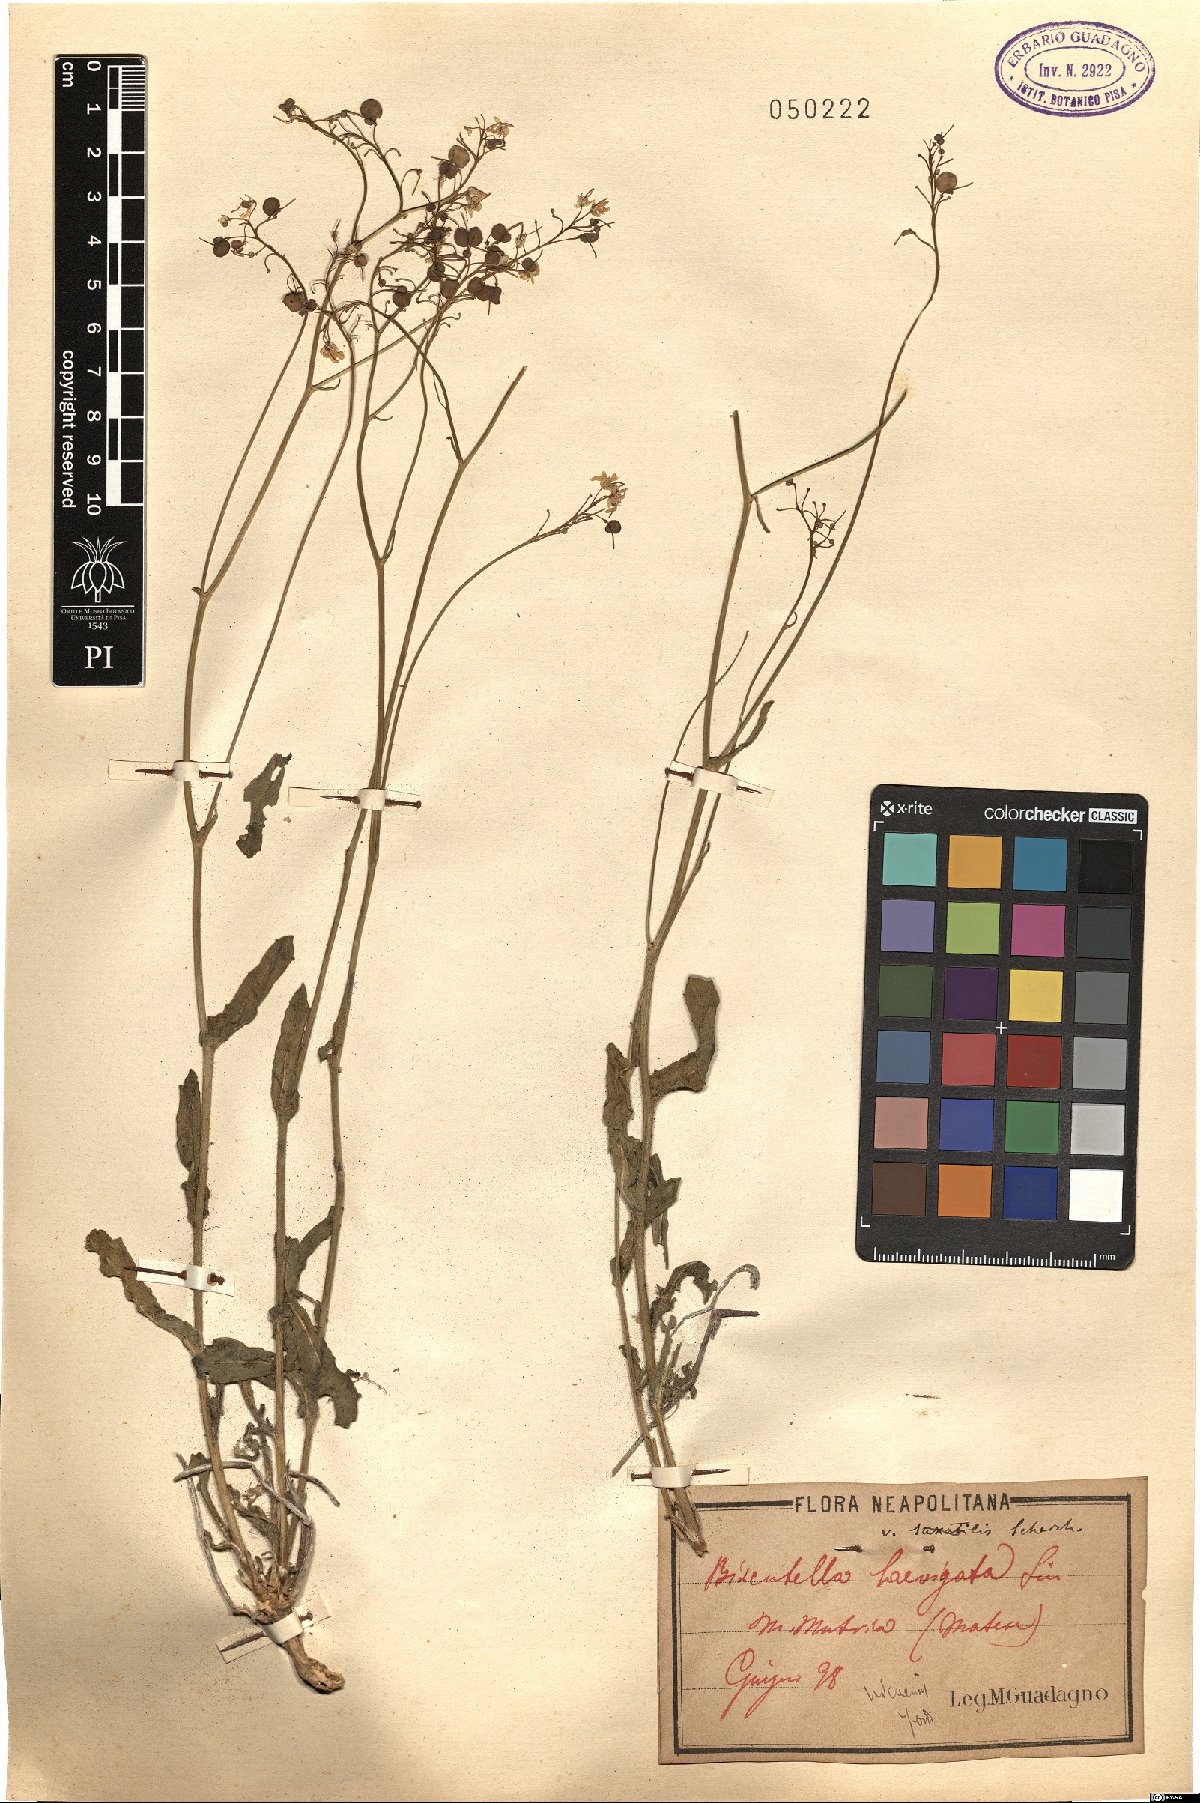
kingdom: Plantae
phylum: Tracheophyta
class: Magnoliopsida
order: Brassicales
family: Brassicaceae
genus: Biscutella
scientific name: Biscutella laevigata
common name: Buckler mustard
